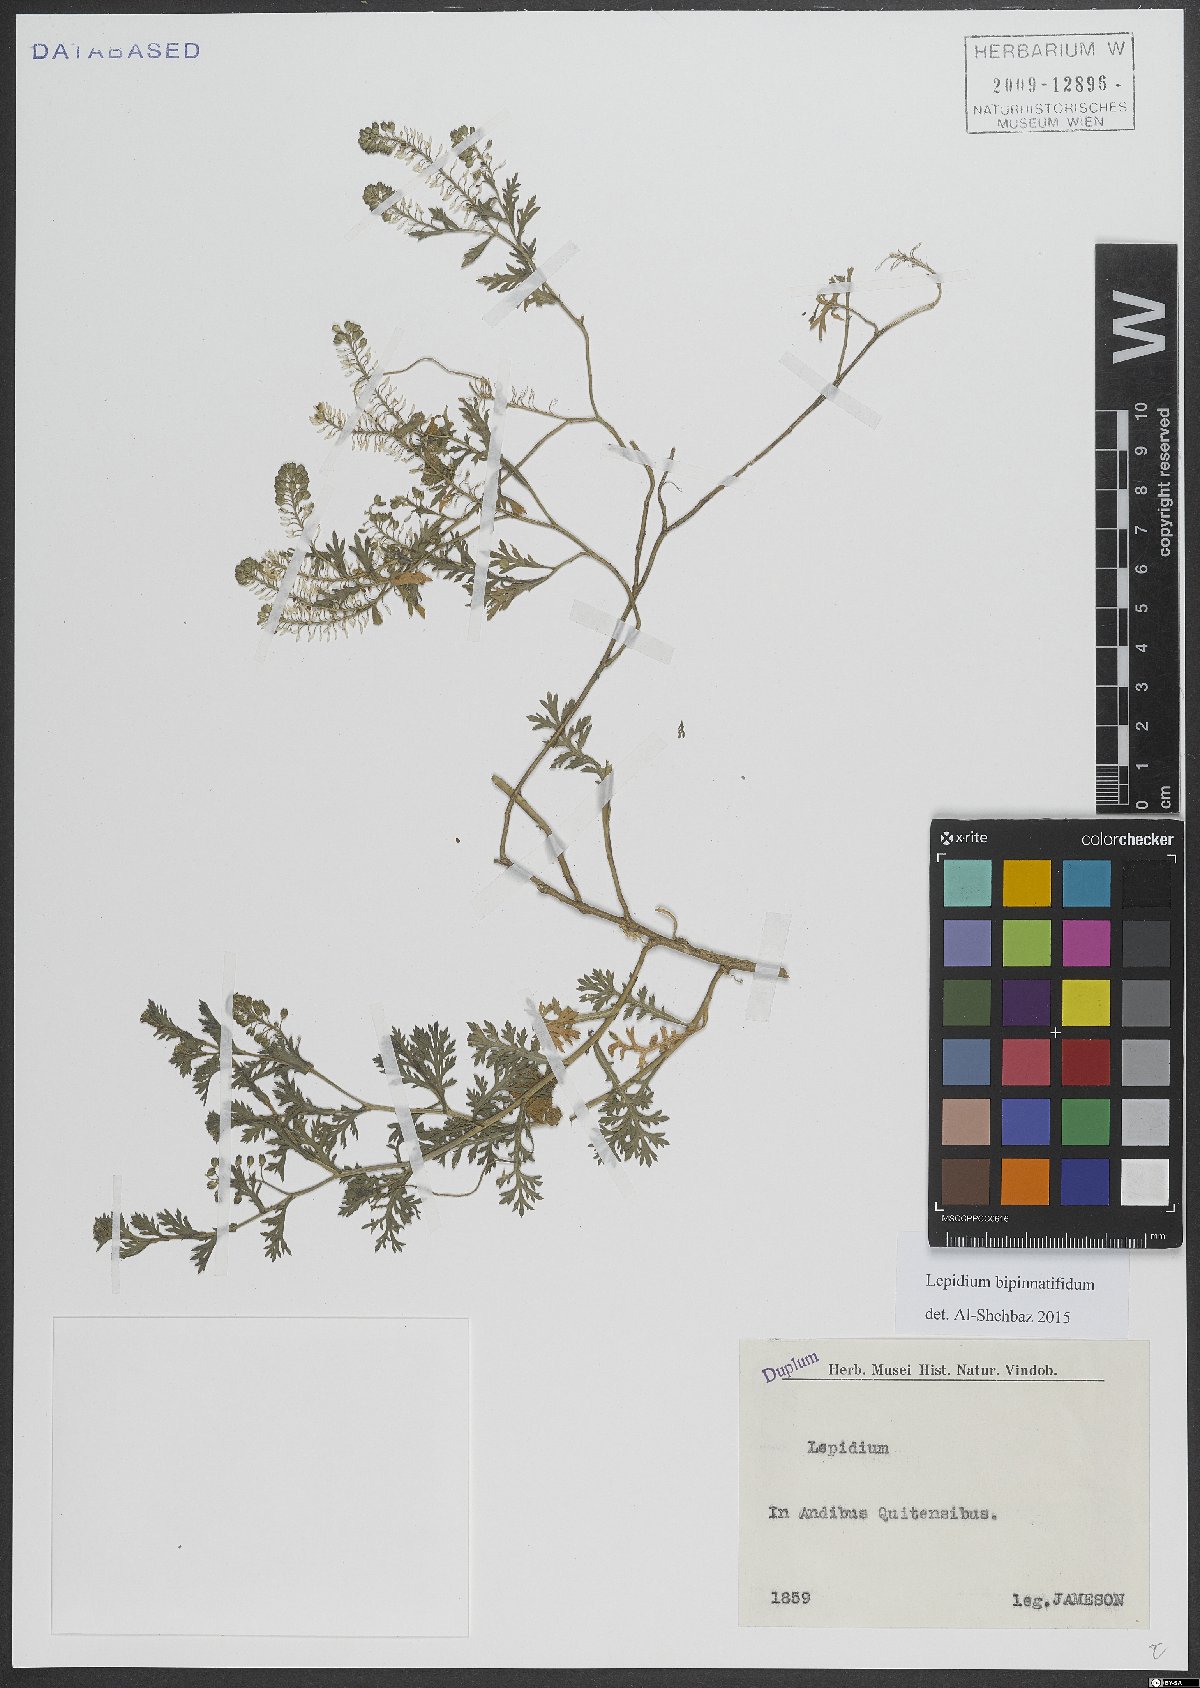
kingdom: Plantae
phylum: Tracheophyta
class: Magnoliopsida
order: Brassicales
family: Brassicaceae
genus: Lepidium
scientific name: Lepidium bipinnatifidum
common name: Wayside pepperwort
